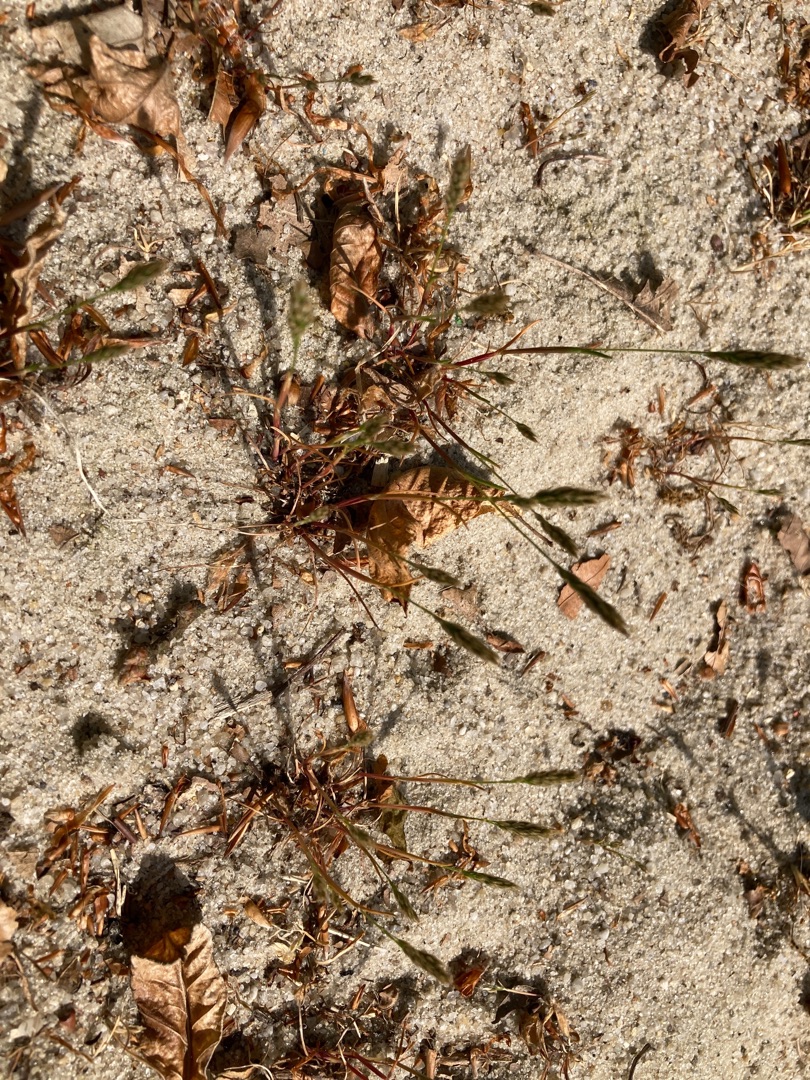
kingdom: Plantae
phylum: Tracheophyta
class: Liliopsida
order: Poales
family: Poaceae
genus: Aira
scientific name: Aira praecox
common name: Tidlig dværgbunke
